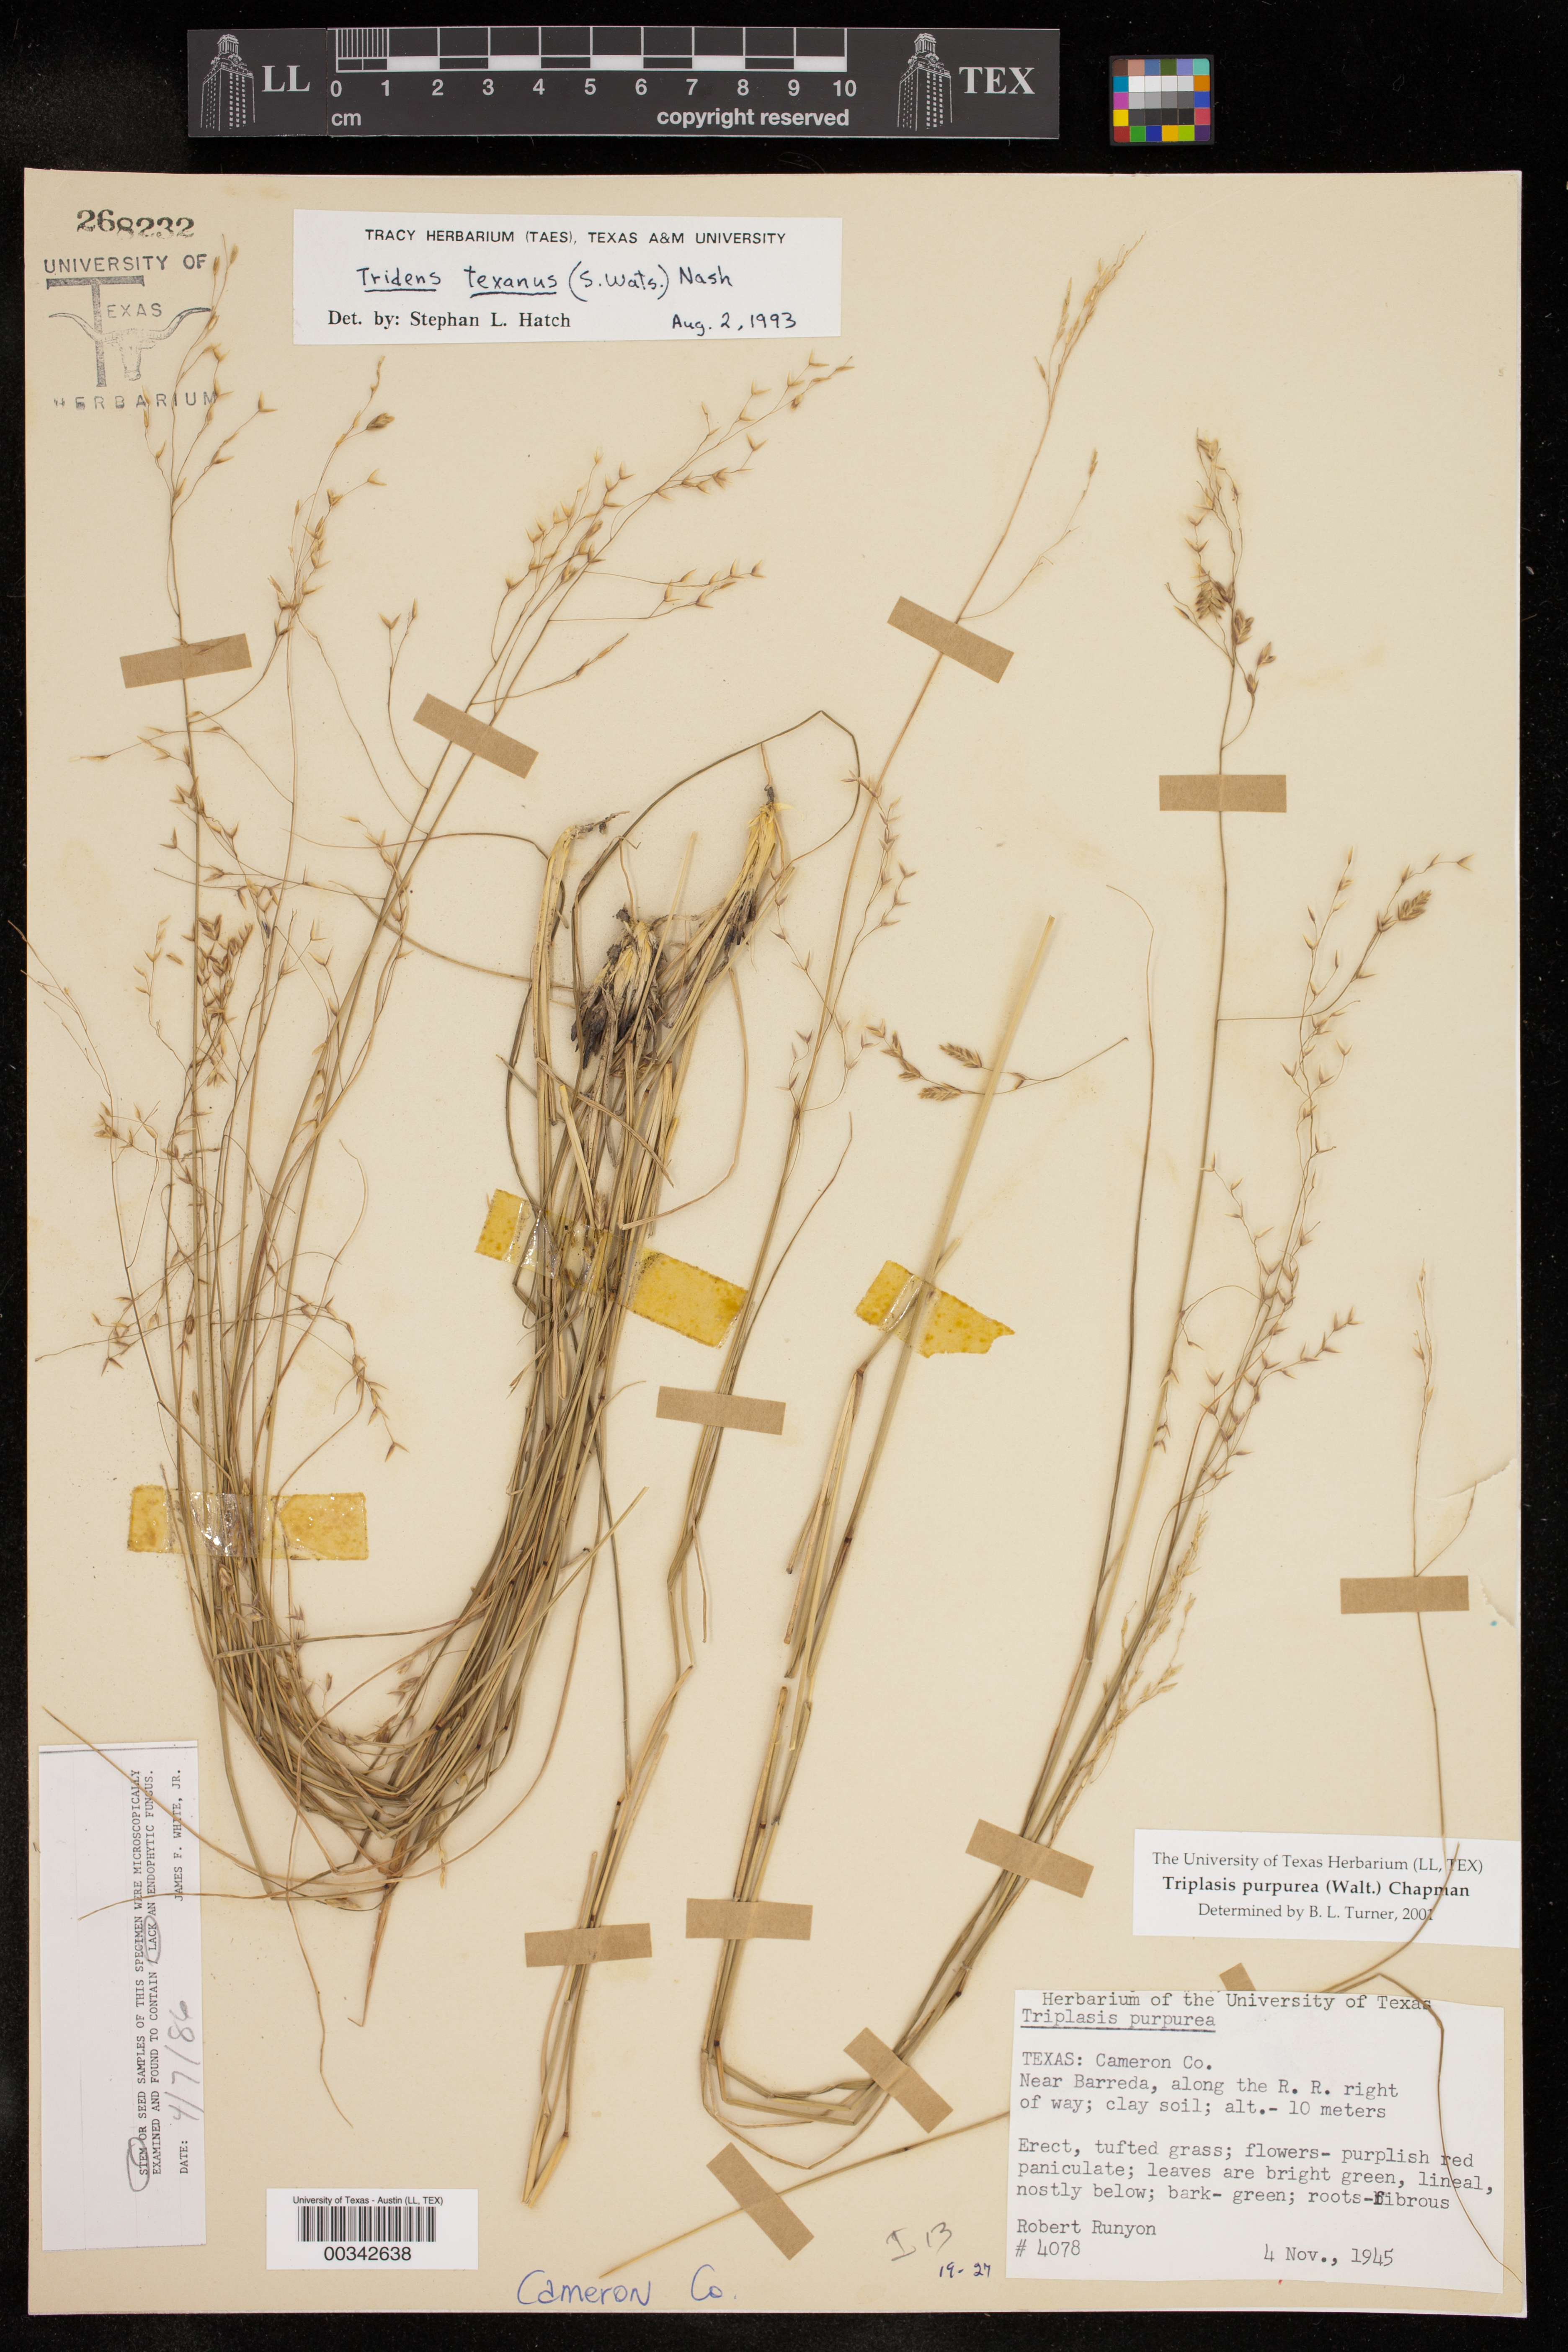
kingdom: Plantae
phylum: Tracheophyta
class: Liliopsida
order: Poales
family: Poaceae
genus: Triplasis
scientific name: Triplasis purpurea
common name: Purple sand grass
